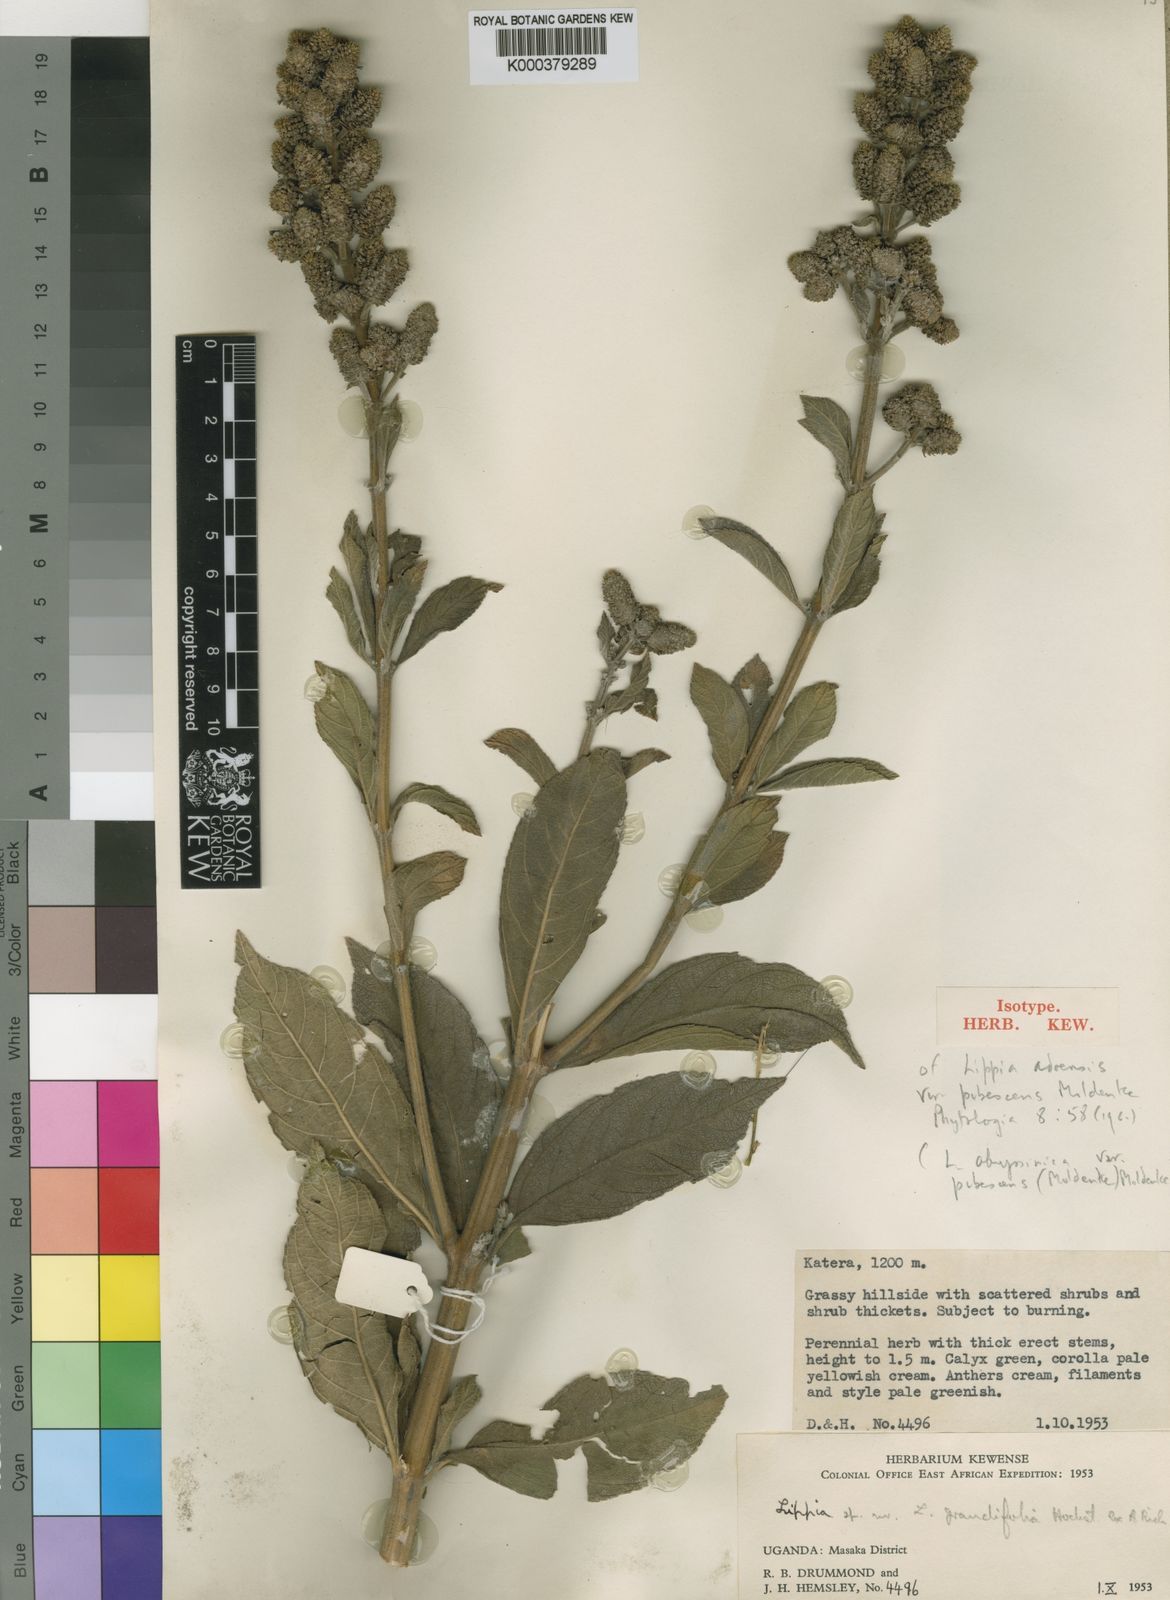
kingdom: Plantae
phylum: Tracheophyta
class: Magnoliopsida
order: Lamiales
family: Verbenaceae
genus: Lippia
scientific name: Lippia abyssinica
